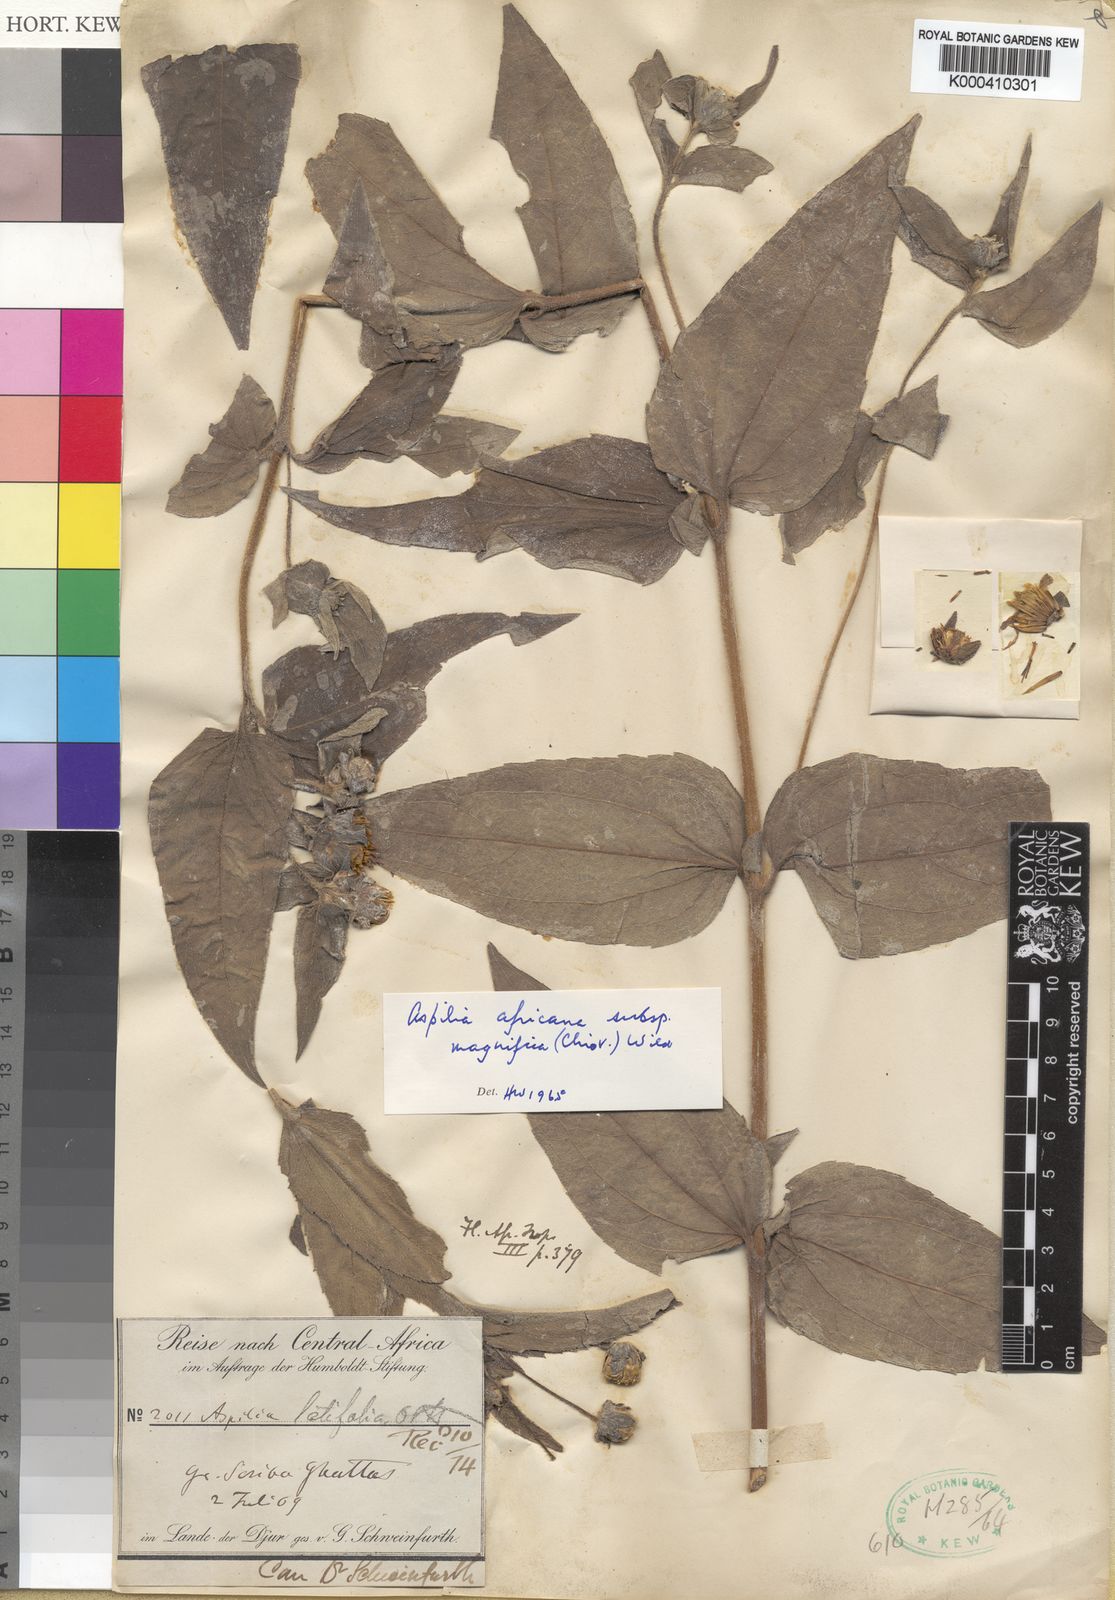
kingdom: Plantae
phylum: Tracheophyta
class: Magnoliopsida
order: Asterales
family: Asteraceae
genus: Aspilia
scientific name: Aspilia africana
